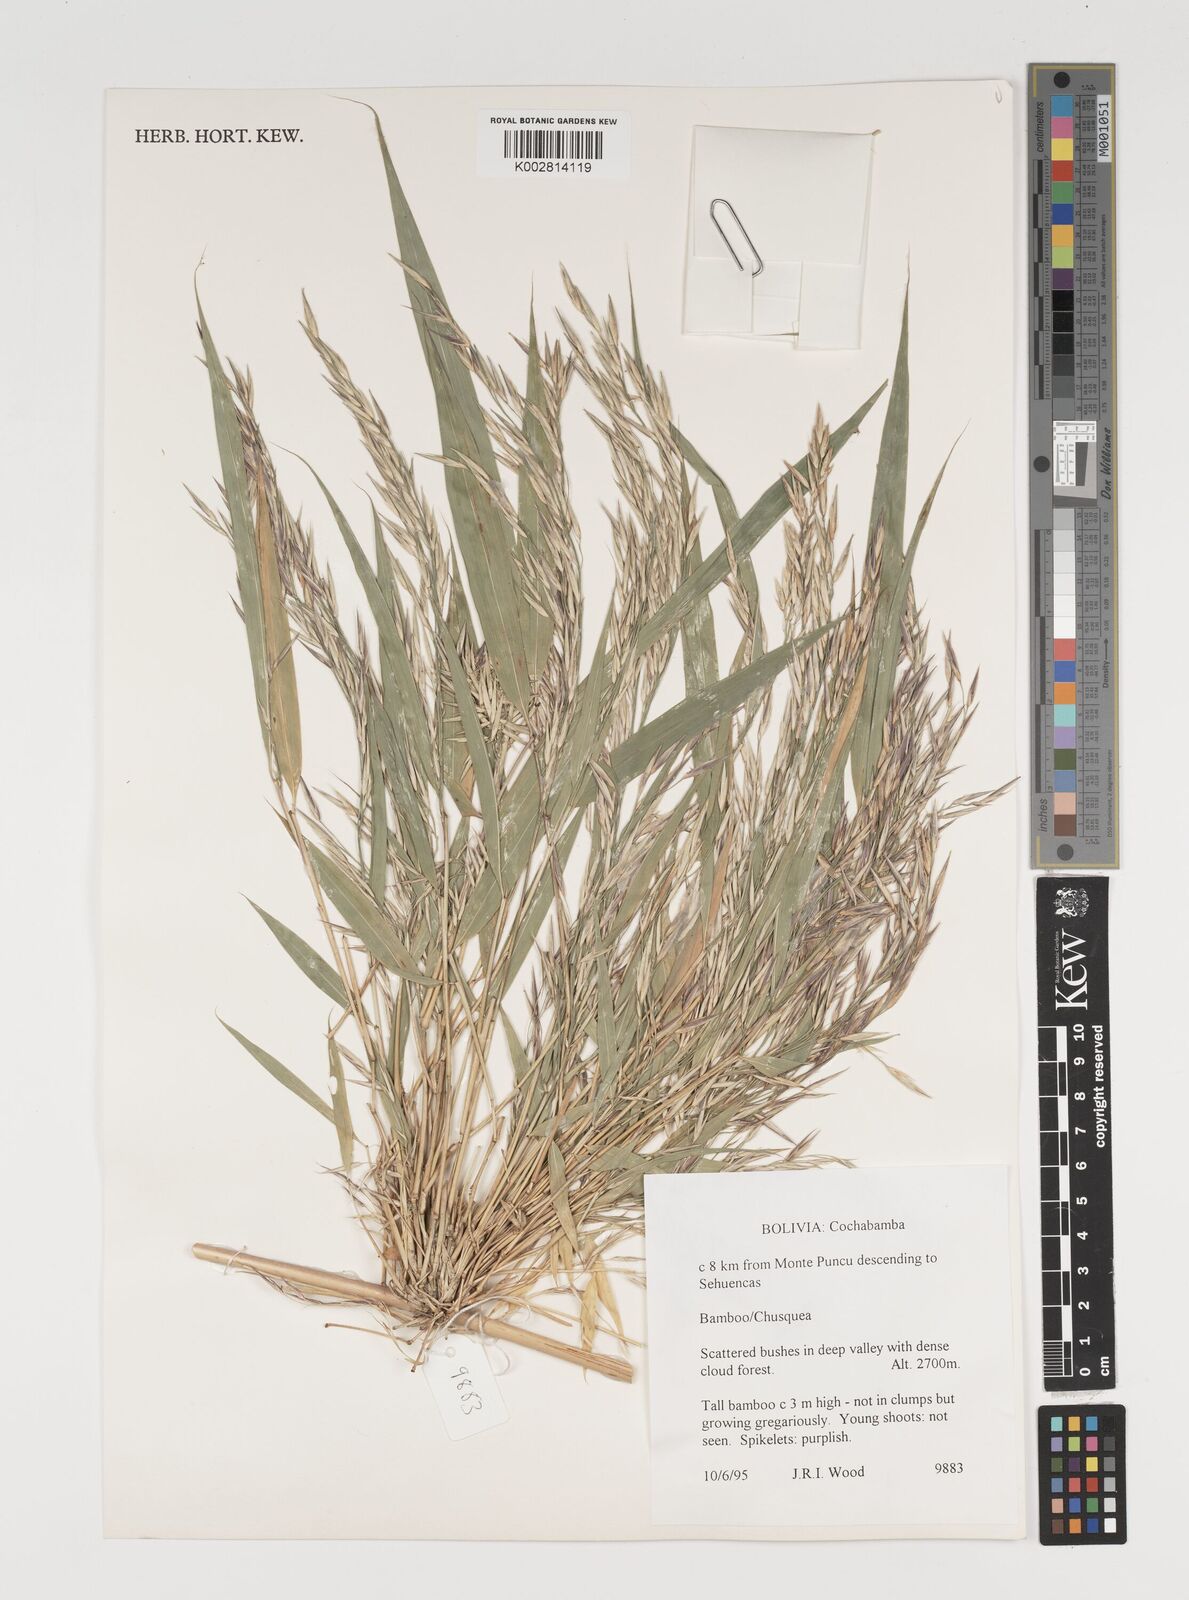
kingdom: Plantae
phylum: Tracheophyta
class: Liliopsida
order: Poales
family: Poaceae
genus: Chusquea
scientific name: Chusquea
